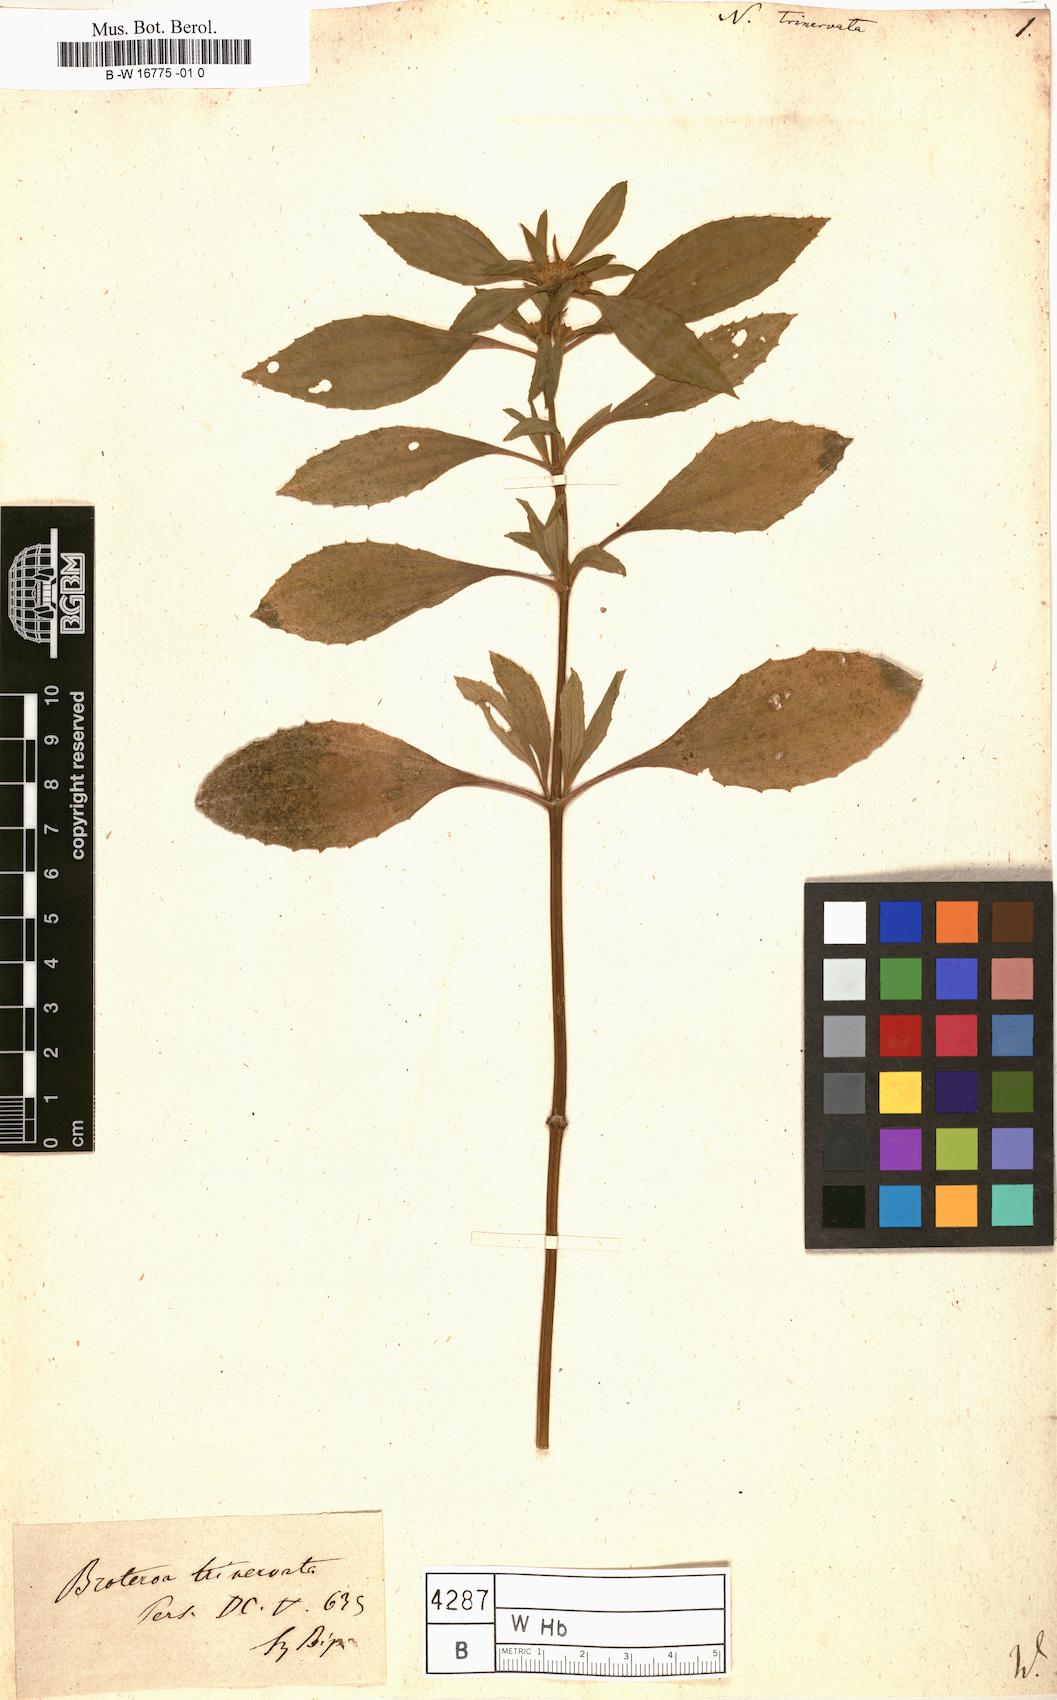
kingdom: Plantae
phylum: Tracheophyta
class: Magnoliopsida
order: Asterales
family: Asteraceae
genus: Flaveria
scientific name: Flaveria trinervia
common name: Clustered yellowtops
